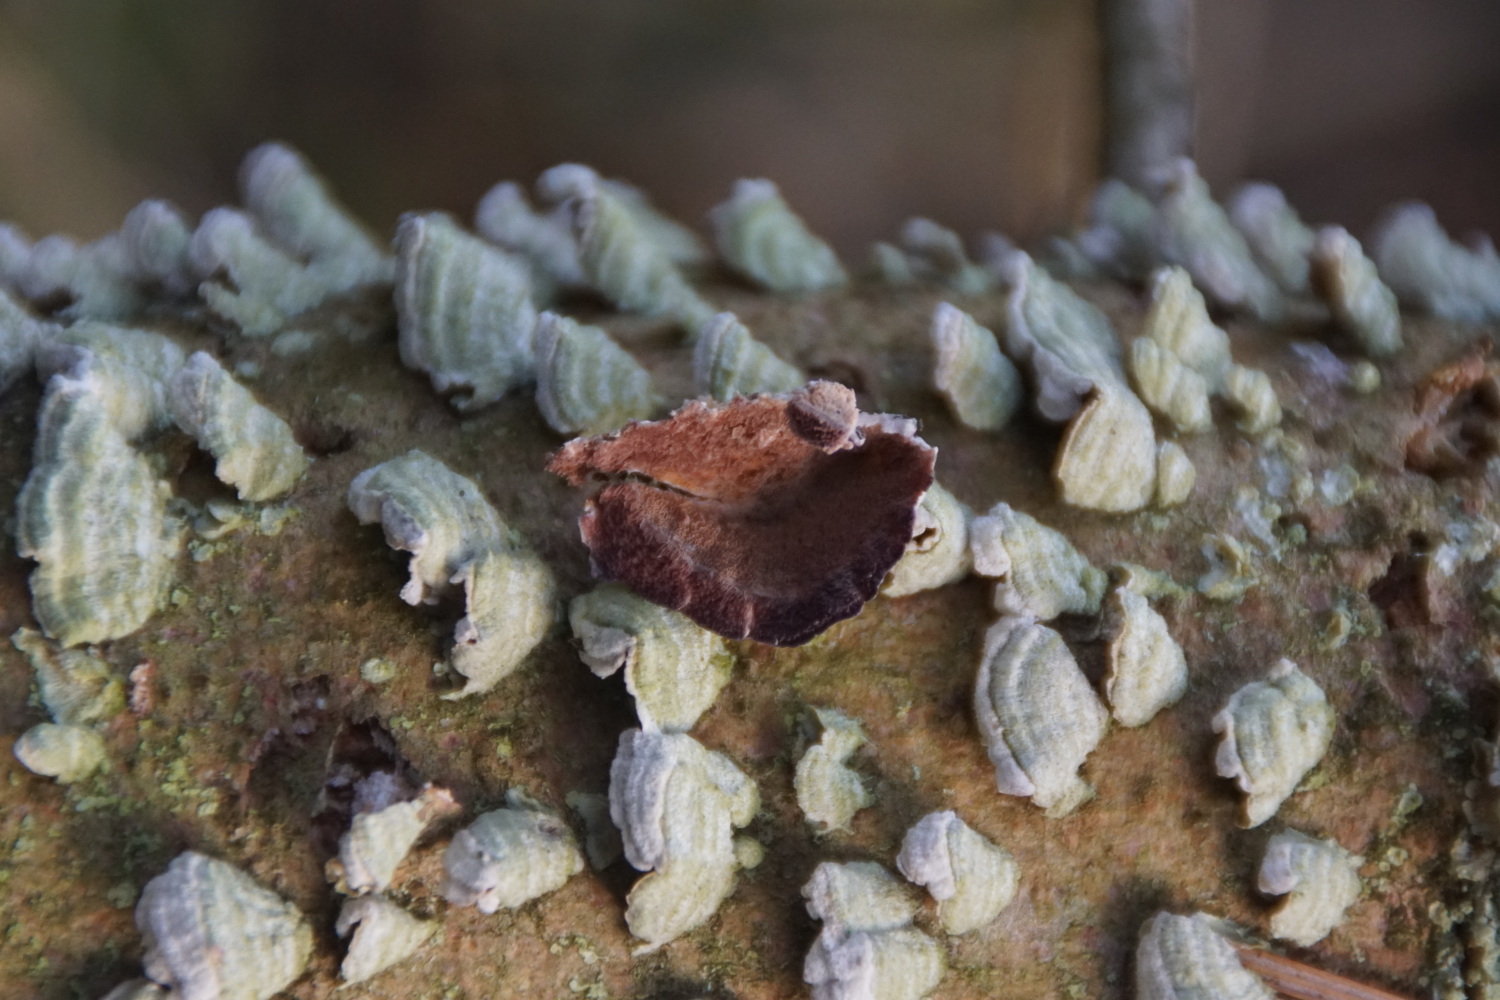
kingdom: Fungi
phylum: Basidiomycota
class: Agaricomycetes
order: Hymenochaetales
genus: Trichaptum
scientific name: Trichaptum abietinum
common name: almindelig violporesvamp
